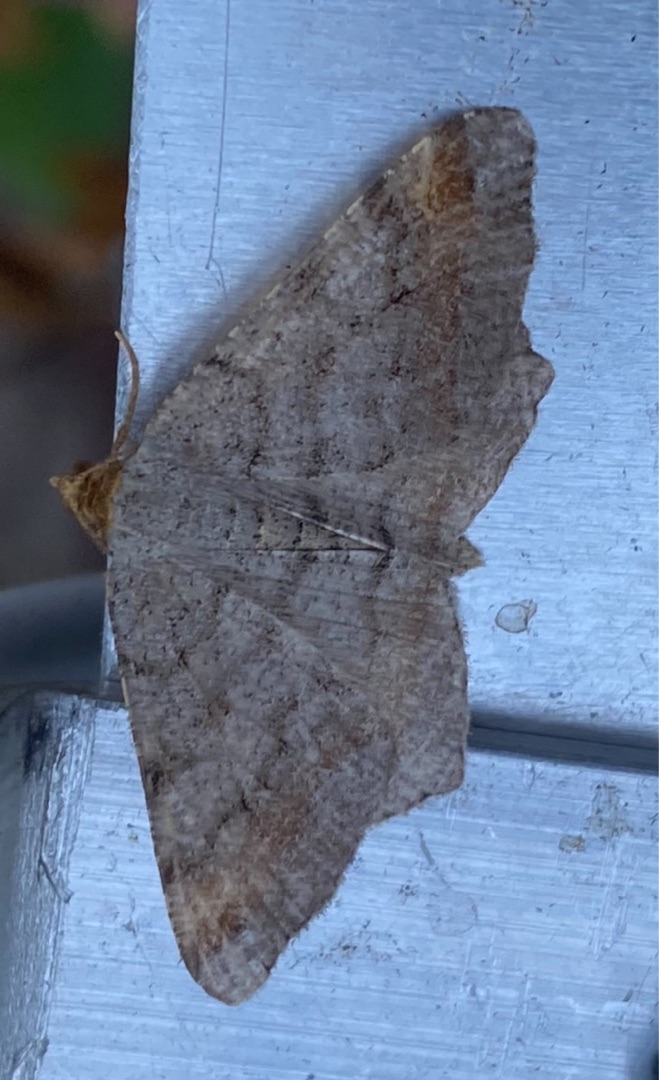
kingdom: Animalia
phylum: Arthropoda
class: Insecta
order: Lepidoptera
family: Geometridae
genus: Macaria
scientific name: Macaria liturata
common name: Fyrre-skovmåler
